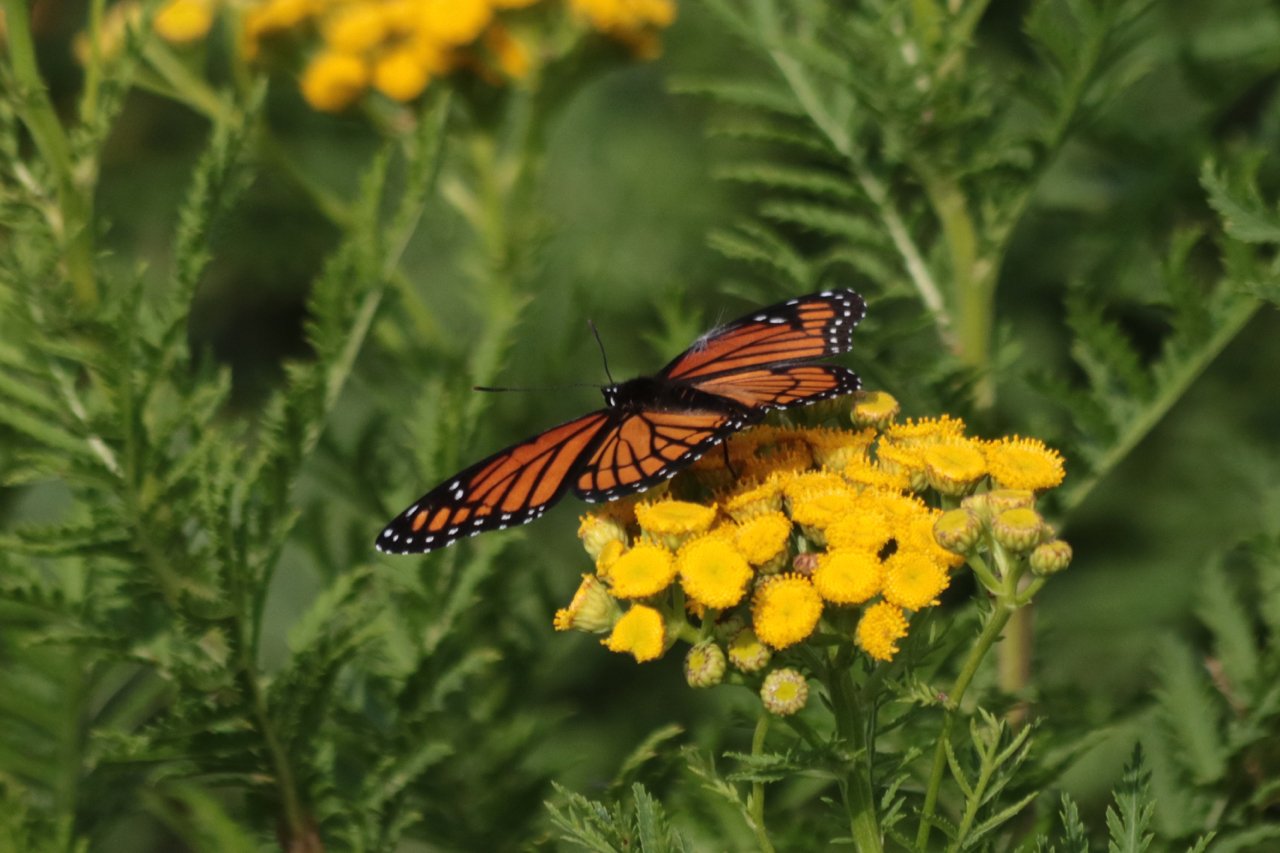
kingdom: Animalia
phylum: Arthropoda
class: Insecta
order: Lepidoptera
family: Nymphalidae
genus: Limenitis
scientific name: Limenitis archippus
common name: Viceroy
